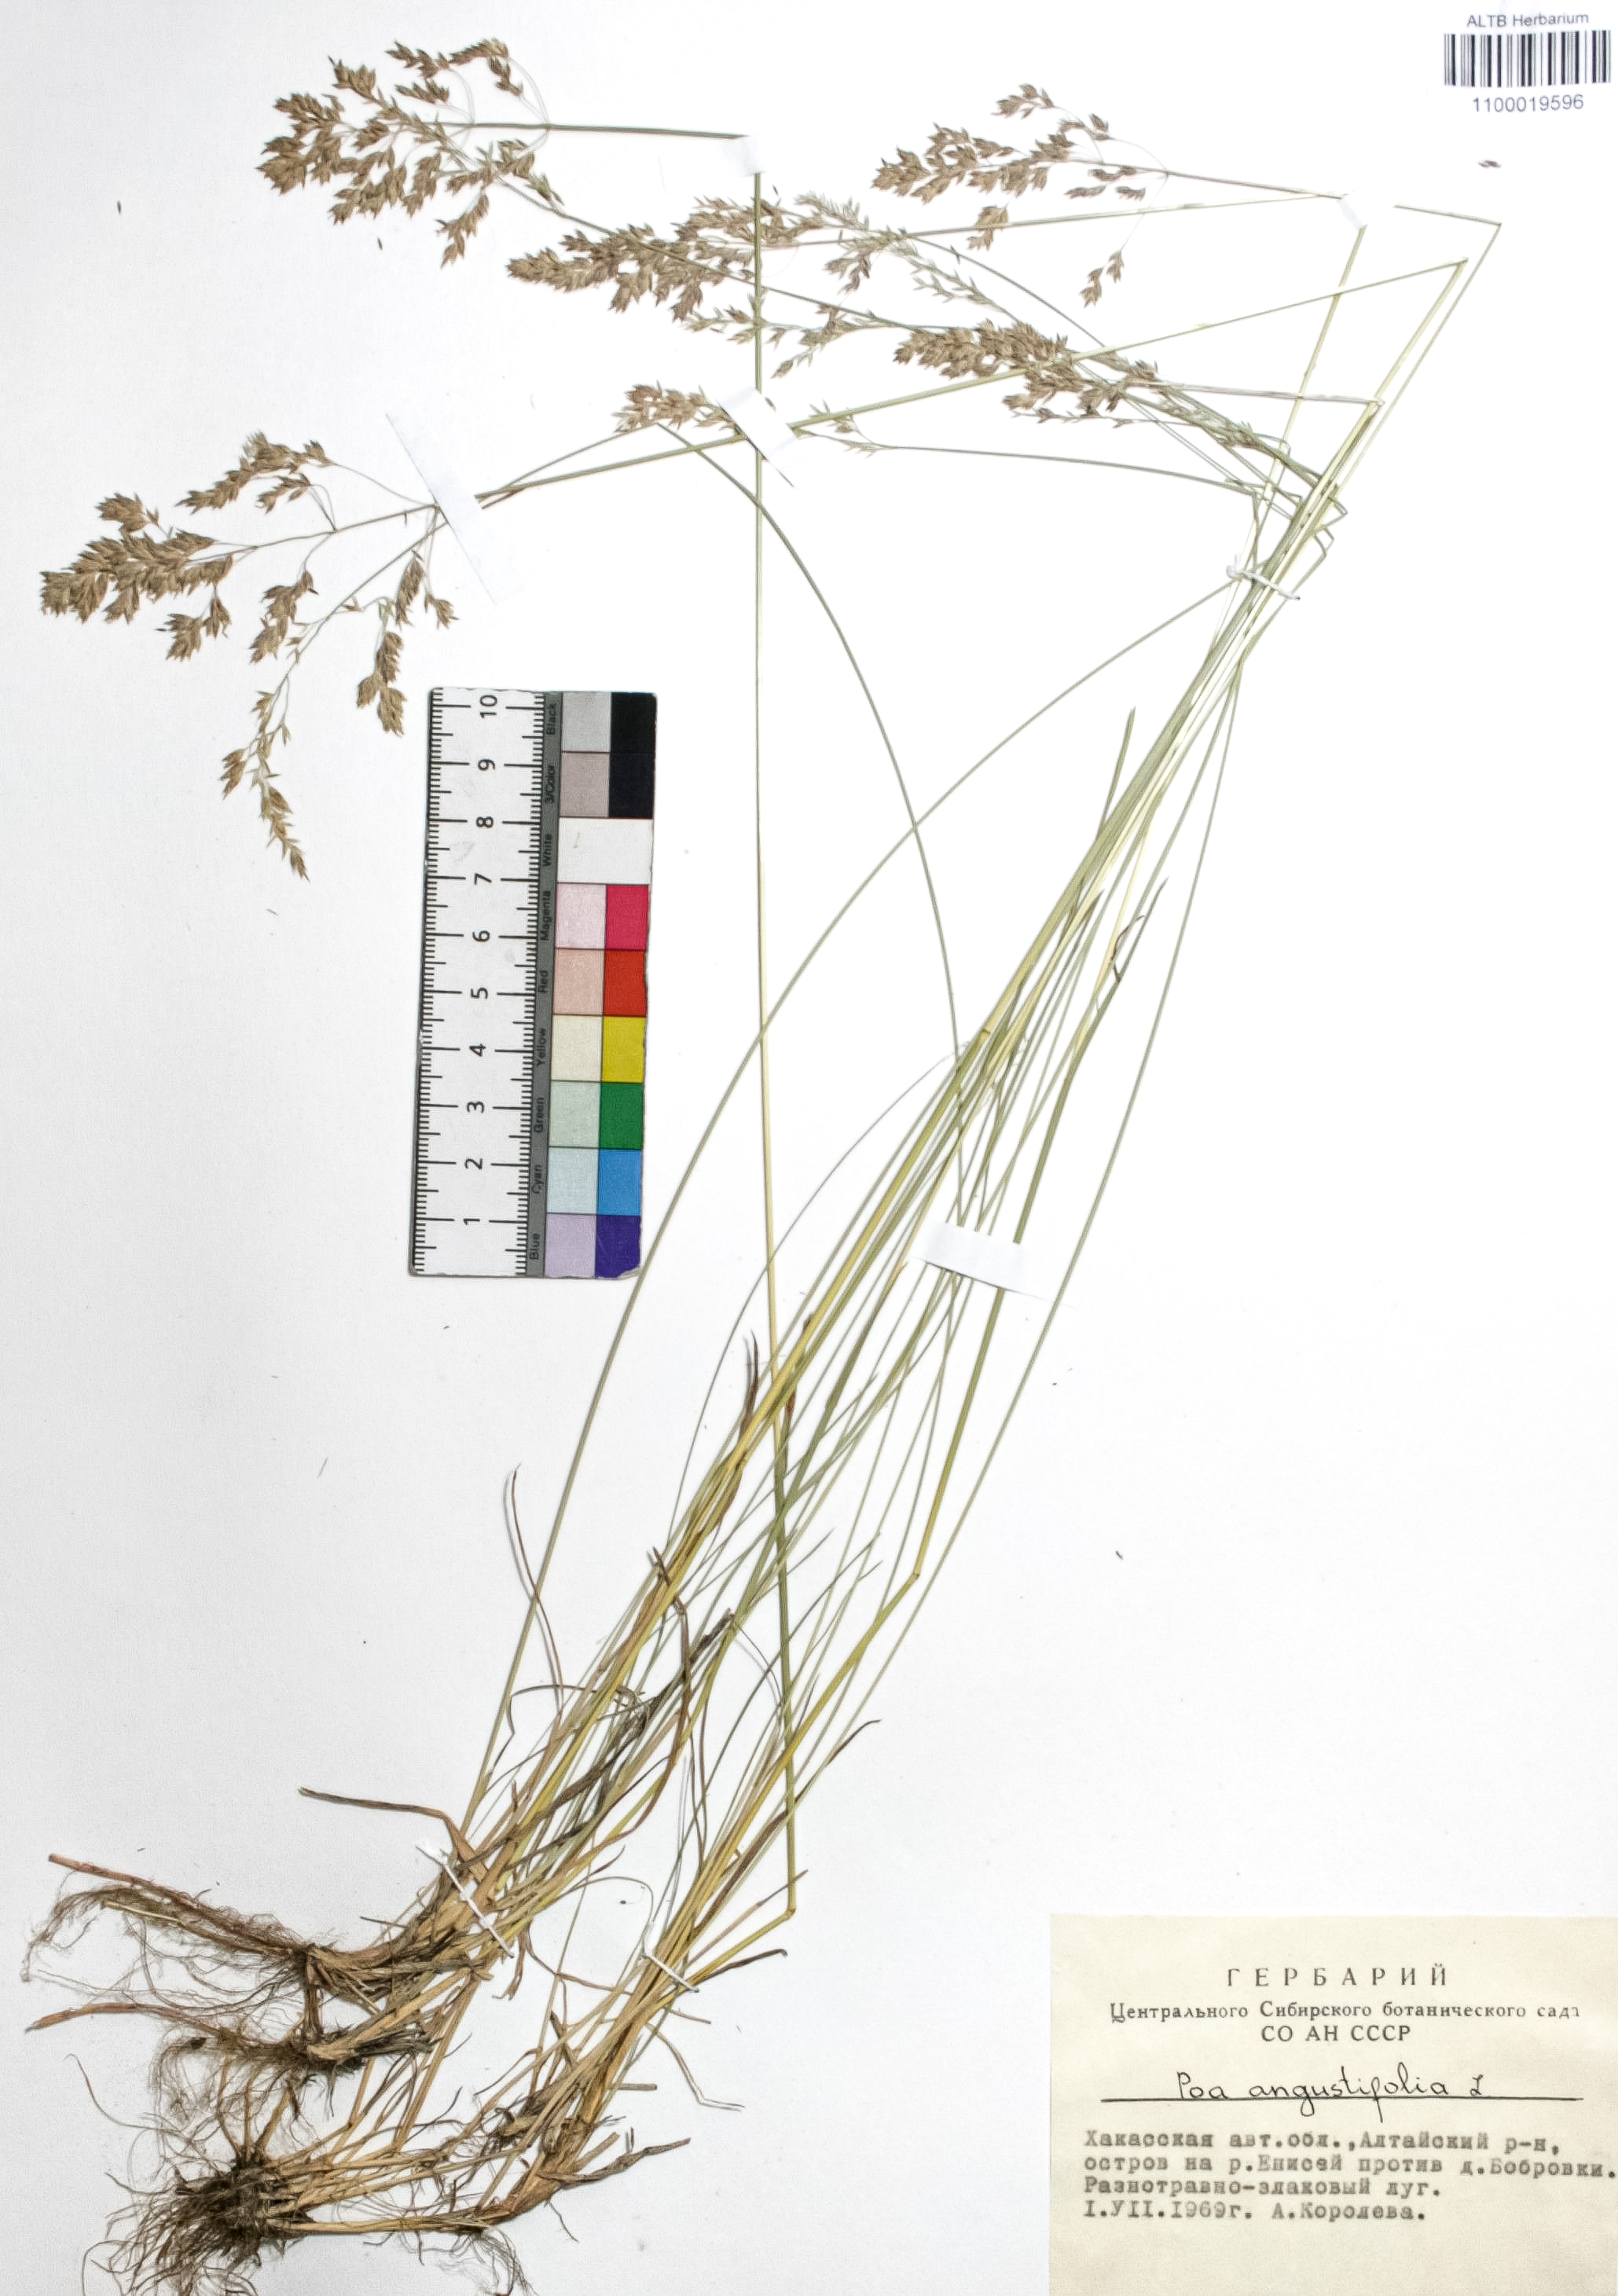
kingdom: Plantae
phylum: Tracheophyta
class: Liliopsida
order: Poales
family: Poaceae
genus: Poa
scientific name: Poa angustifolia
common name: Narrow-leaved meadow-grass
